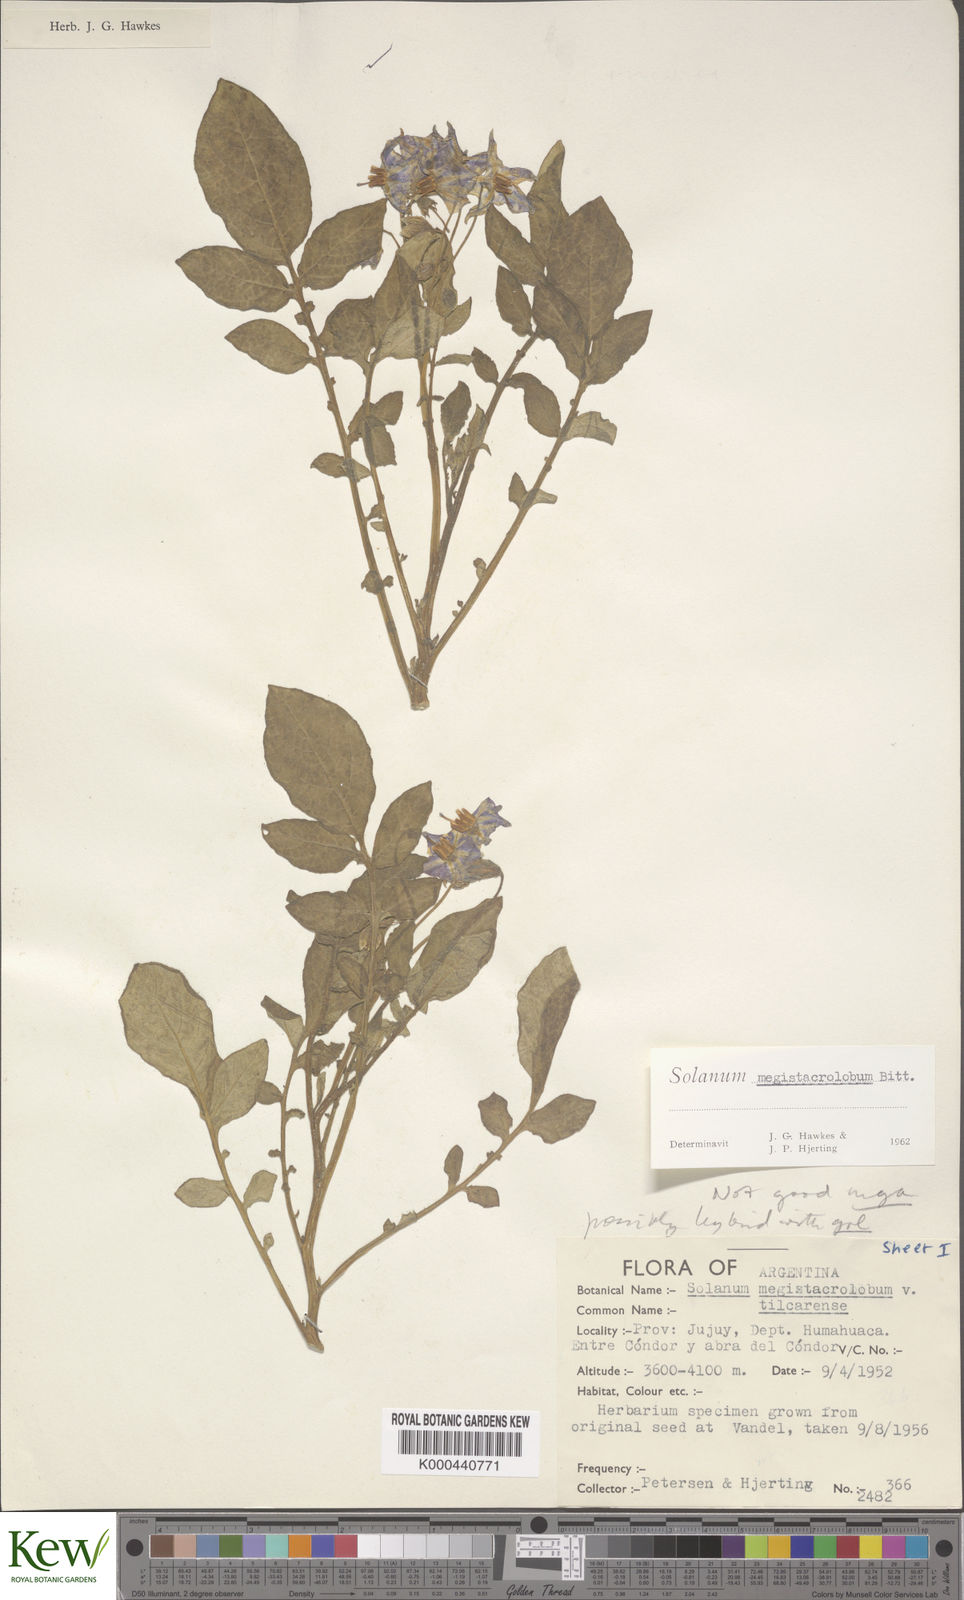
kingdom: Plantae
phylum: Tracheophyta
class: Magnoliopsida
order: Solanales
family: Solanaceae
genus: Solanum
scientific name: Solanum boliviense
